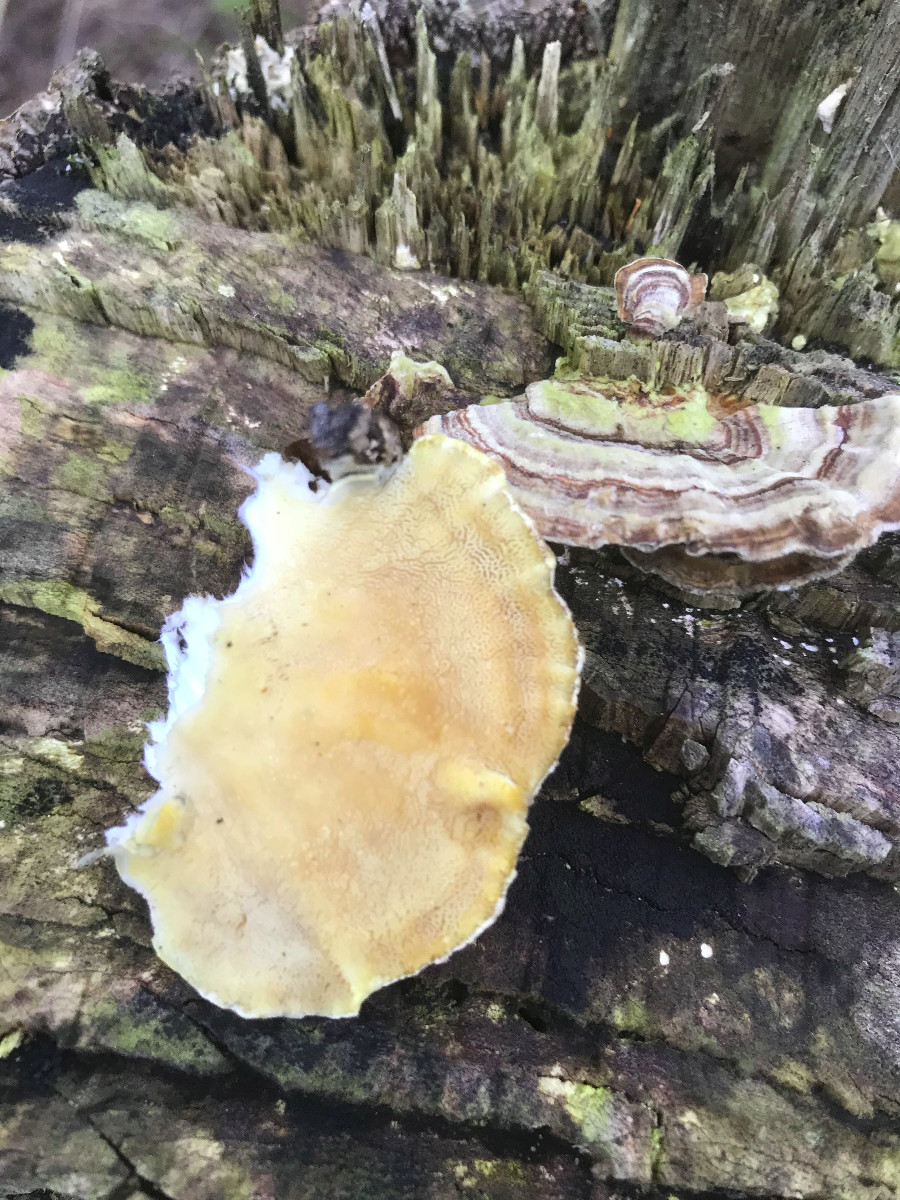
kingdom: Fungi
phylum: Basidiomycota
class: Agaricomycetes
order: Russulales
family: Stereaceae
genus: Stereum
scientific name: Stereum hirsutum
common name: håret lædersvamp
